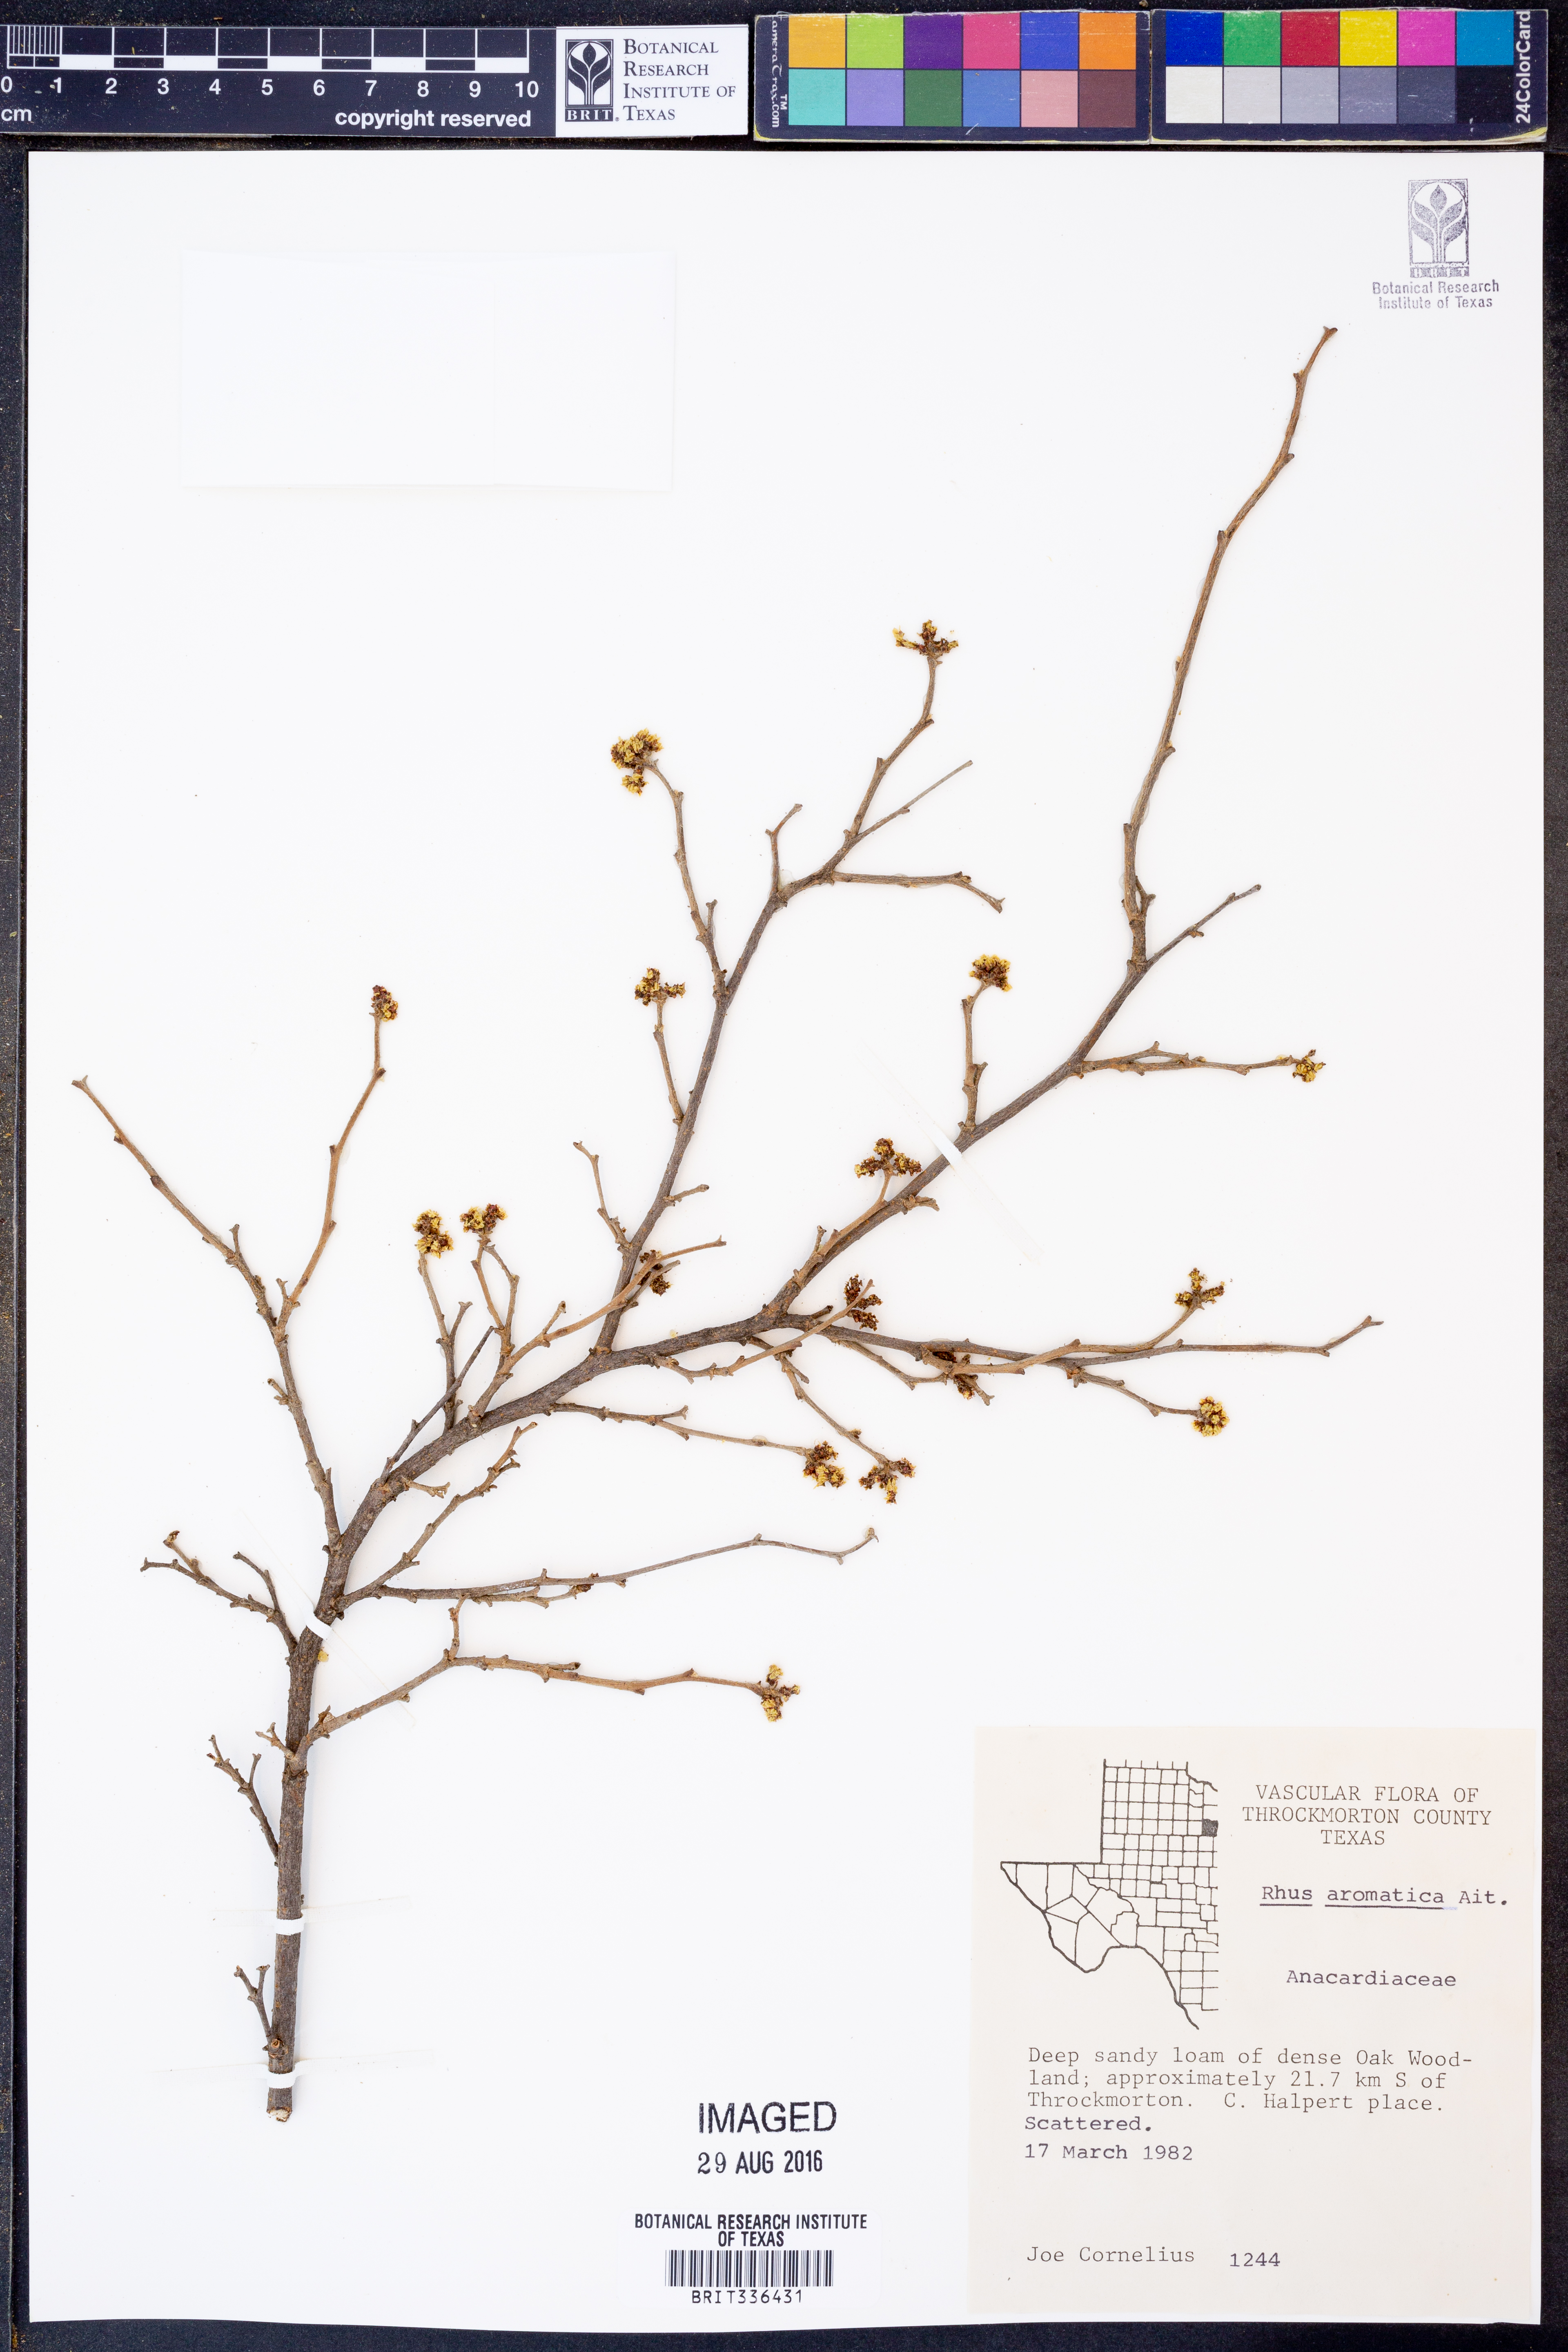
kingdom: Plantae
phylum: Tracheophyta
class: Magnoliopsida
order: Sapindales
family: Anacardiaceae
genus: Rhus
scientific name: Rhus aromatica
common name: Aromatic sumac
